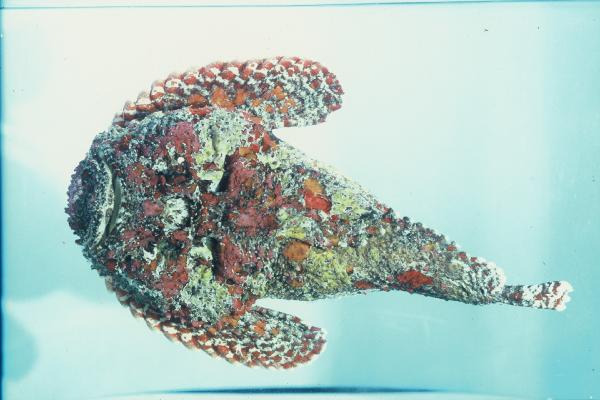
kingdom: Animalia
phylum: Chordata
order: Scorpaeniformes
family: Synanceiidae
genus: Synanceia
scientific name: Synanceia verrucosa
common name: Stonefish
